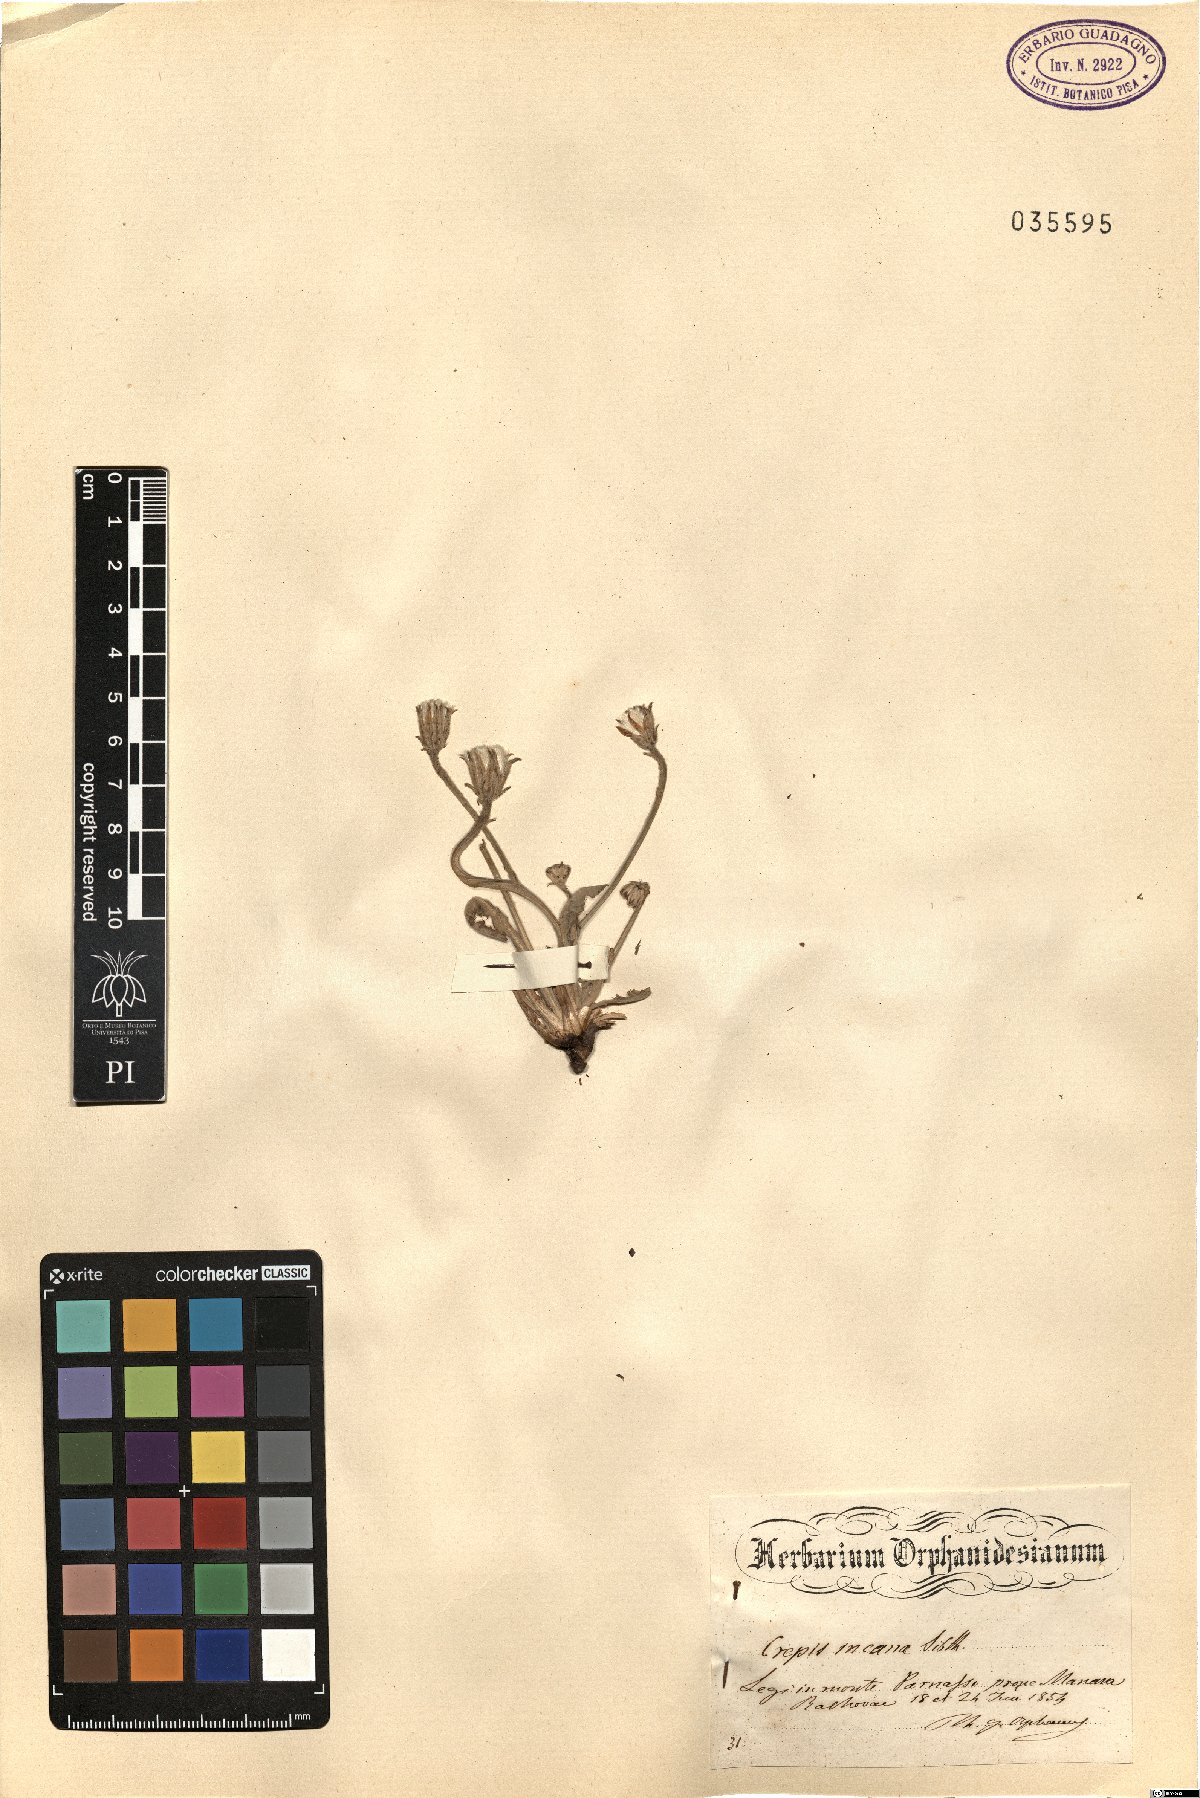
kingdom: Plantae
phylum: Tracheophyta
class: Magnoliopsida
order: Asterales
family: Asteraceae
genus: Crepis
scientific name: Crepis incana
